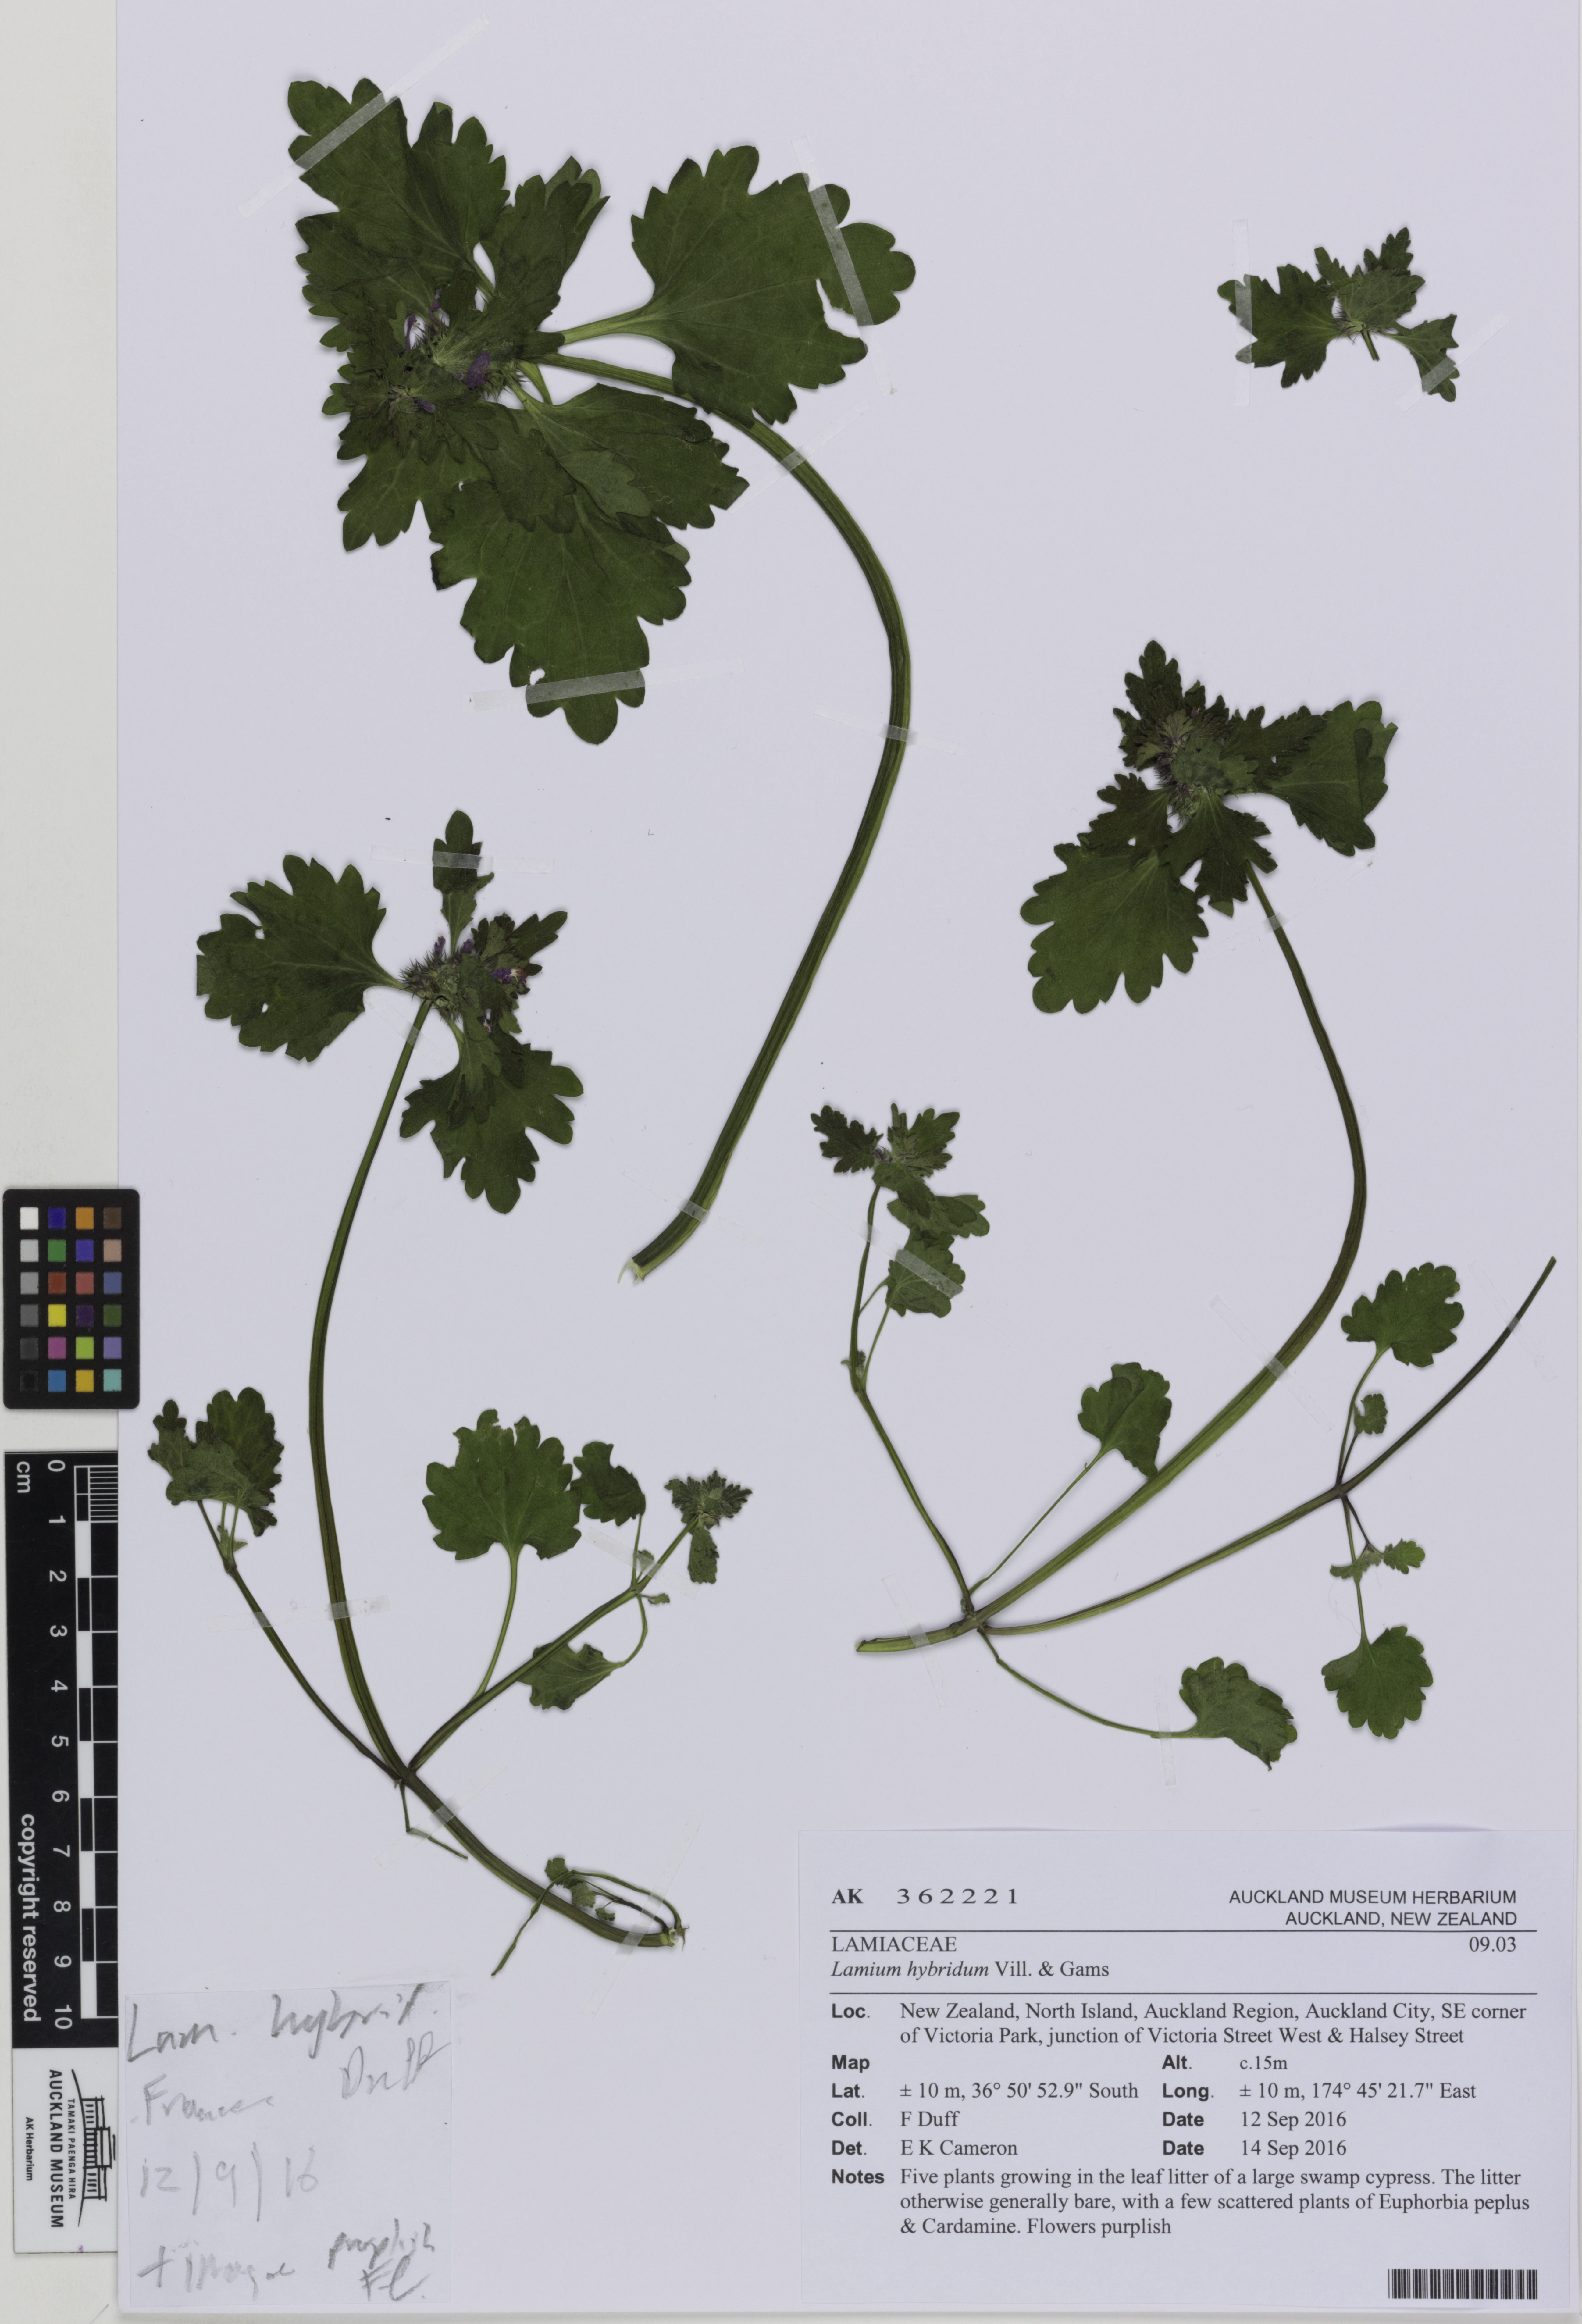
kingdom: Plantae
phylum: Tracheophyta
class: Magnoliopsida
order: Lamiales
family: Lamiaceae
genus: Lamium
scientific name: Lamium hybridum
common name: Cut-leaved dead-nettle
